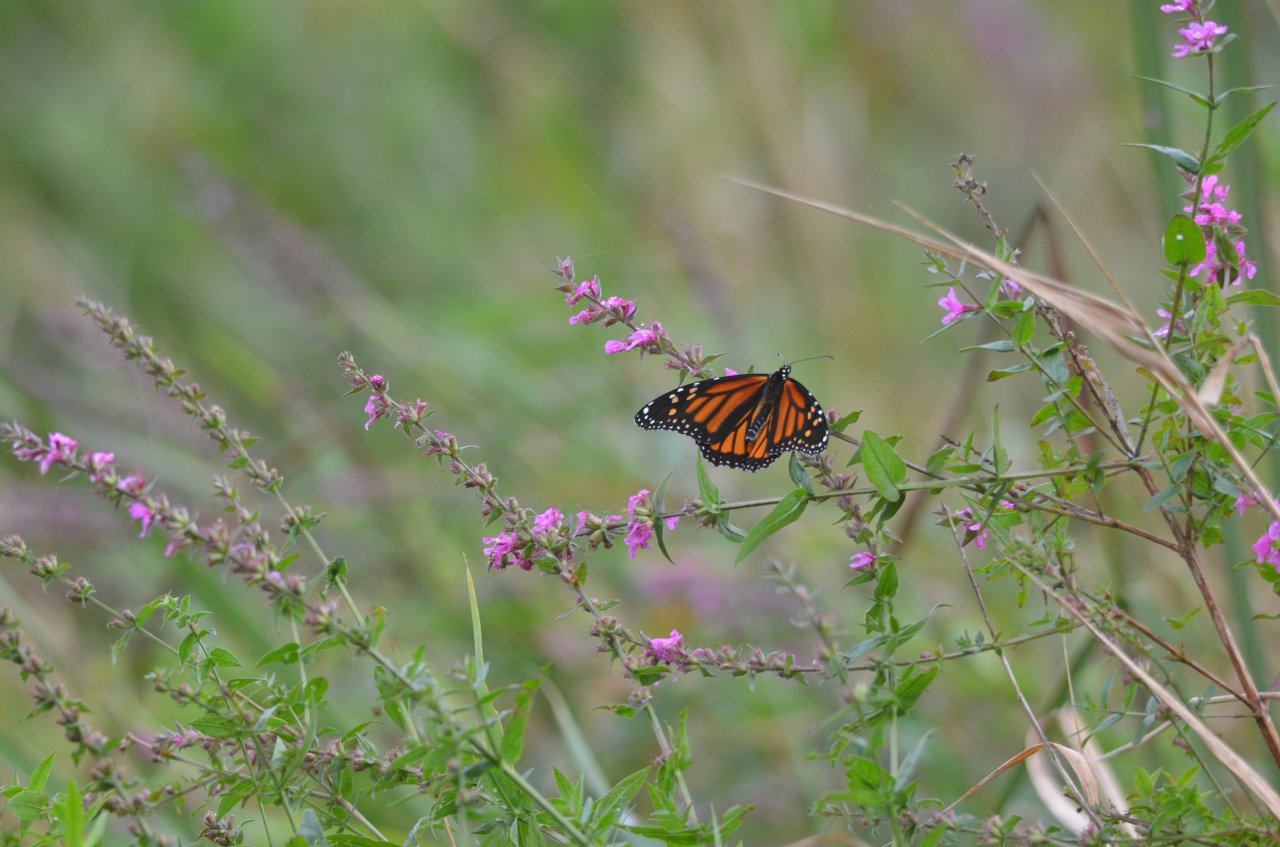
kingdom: Animalia
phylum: Arthropoda
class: Insecta
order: Lepidoptera
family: Nymphalidae
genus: Danaus
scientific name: Danaus plexippus
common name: Monarch
